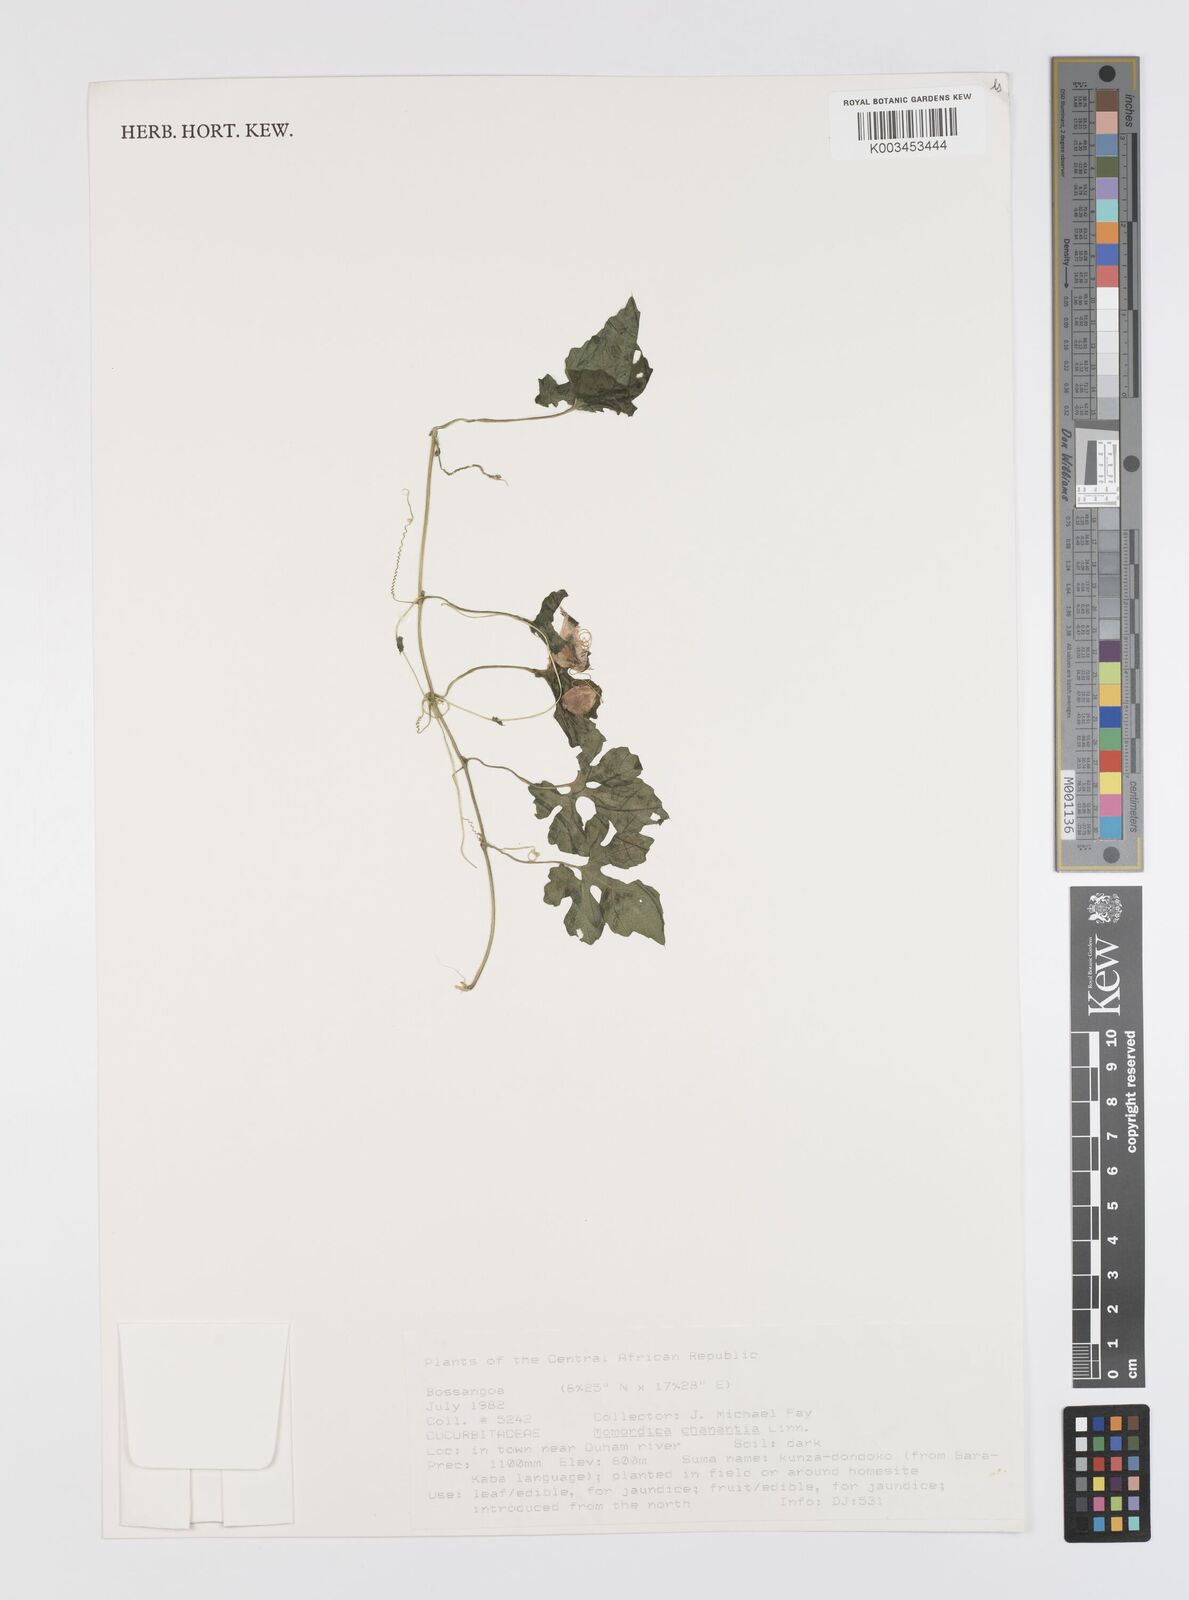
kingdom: Plantae
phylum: Tracheophyta
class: Magnoliopsida
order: Cucurbitales
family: Cucurbitaceae
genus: Momordica
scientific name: Momordica charantia
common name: Balsampear
